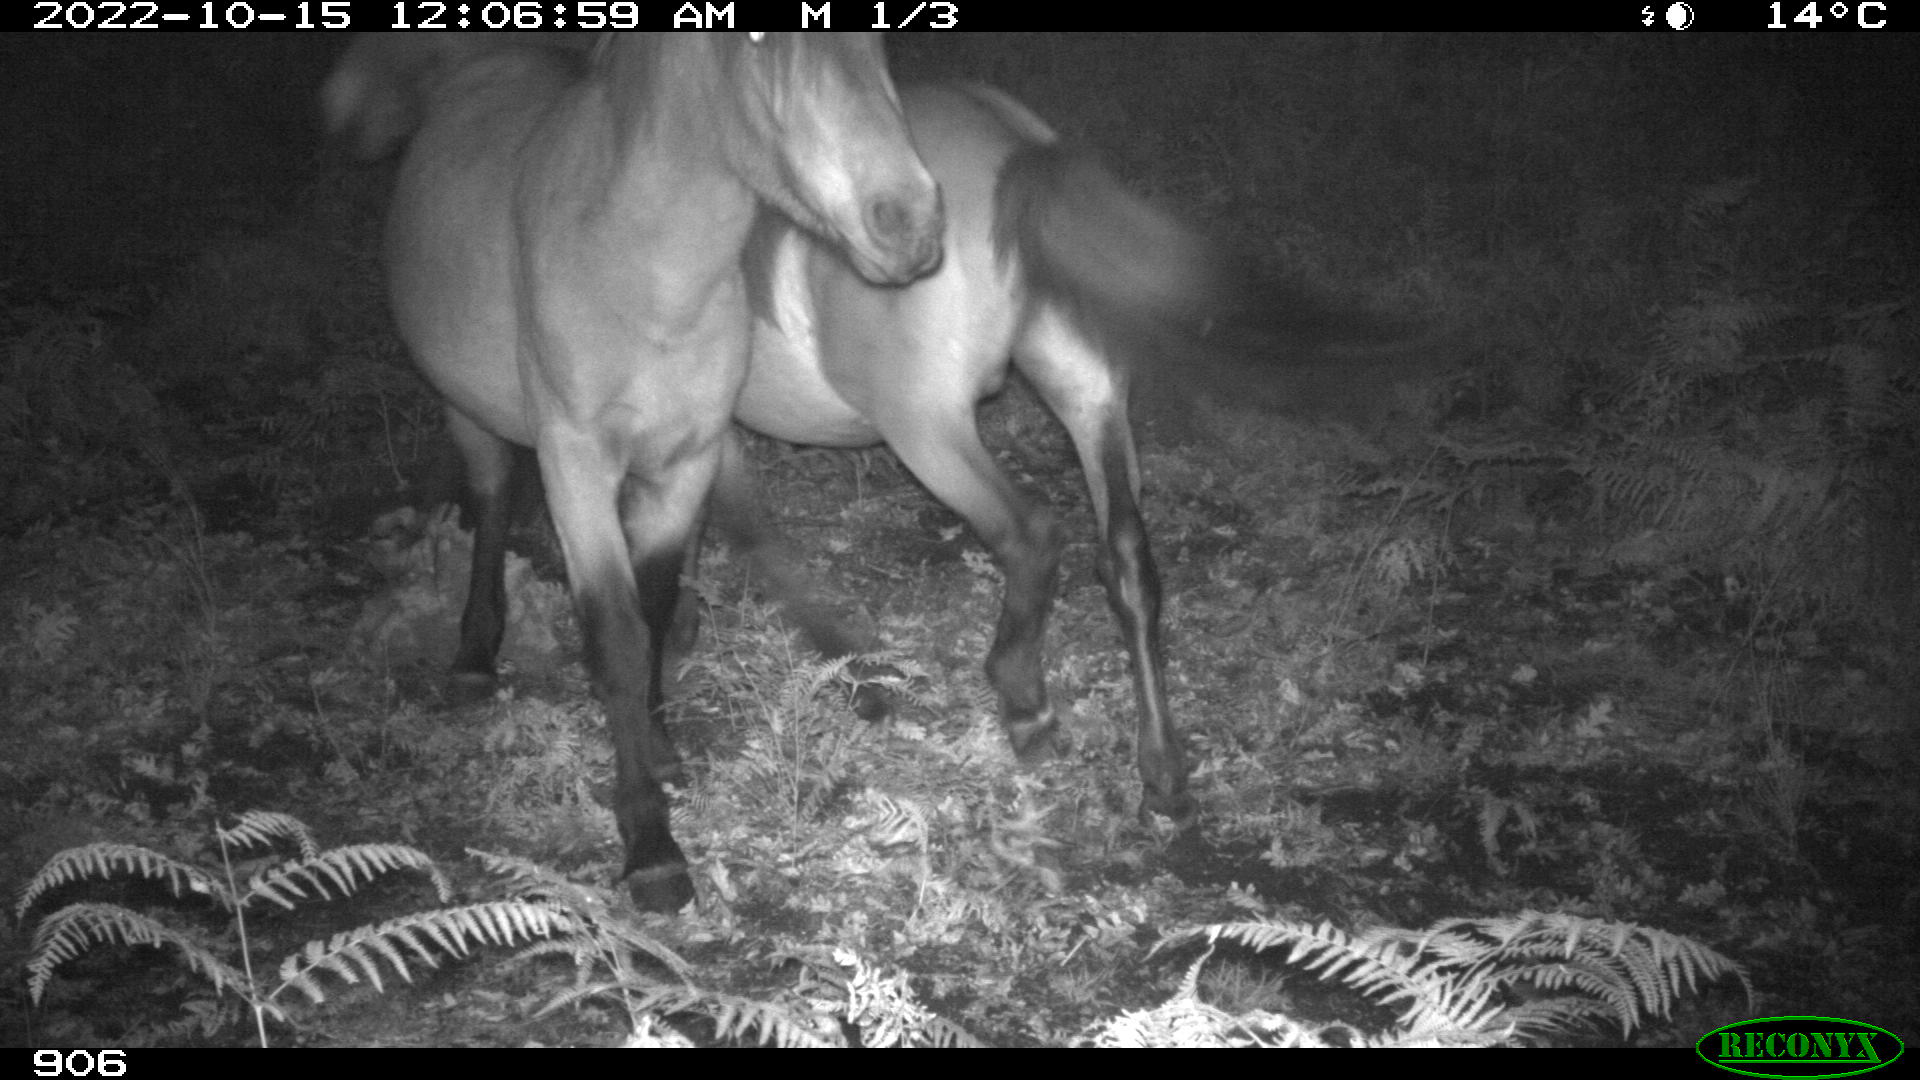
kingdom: Animalia
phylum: Chordata
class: Mammalia
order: Perissodactyla
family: Equidae
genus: Equus
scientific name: Equus caballus
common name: Horse
